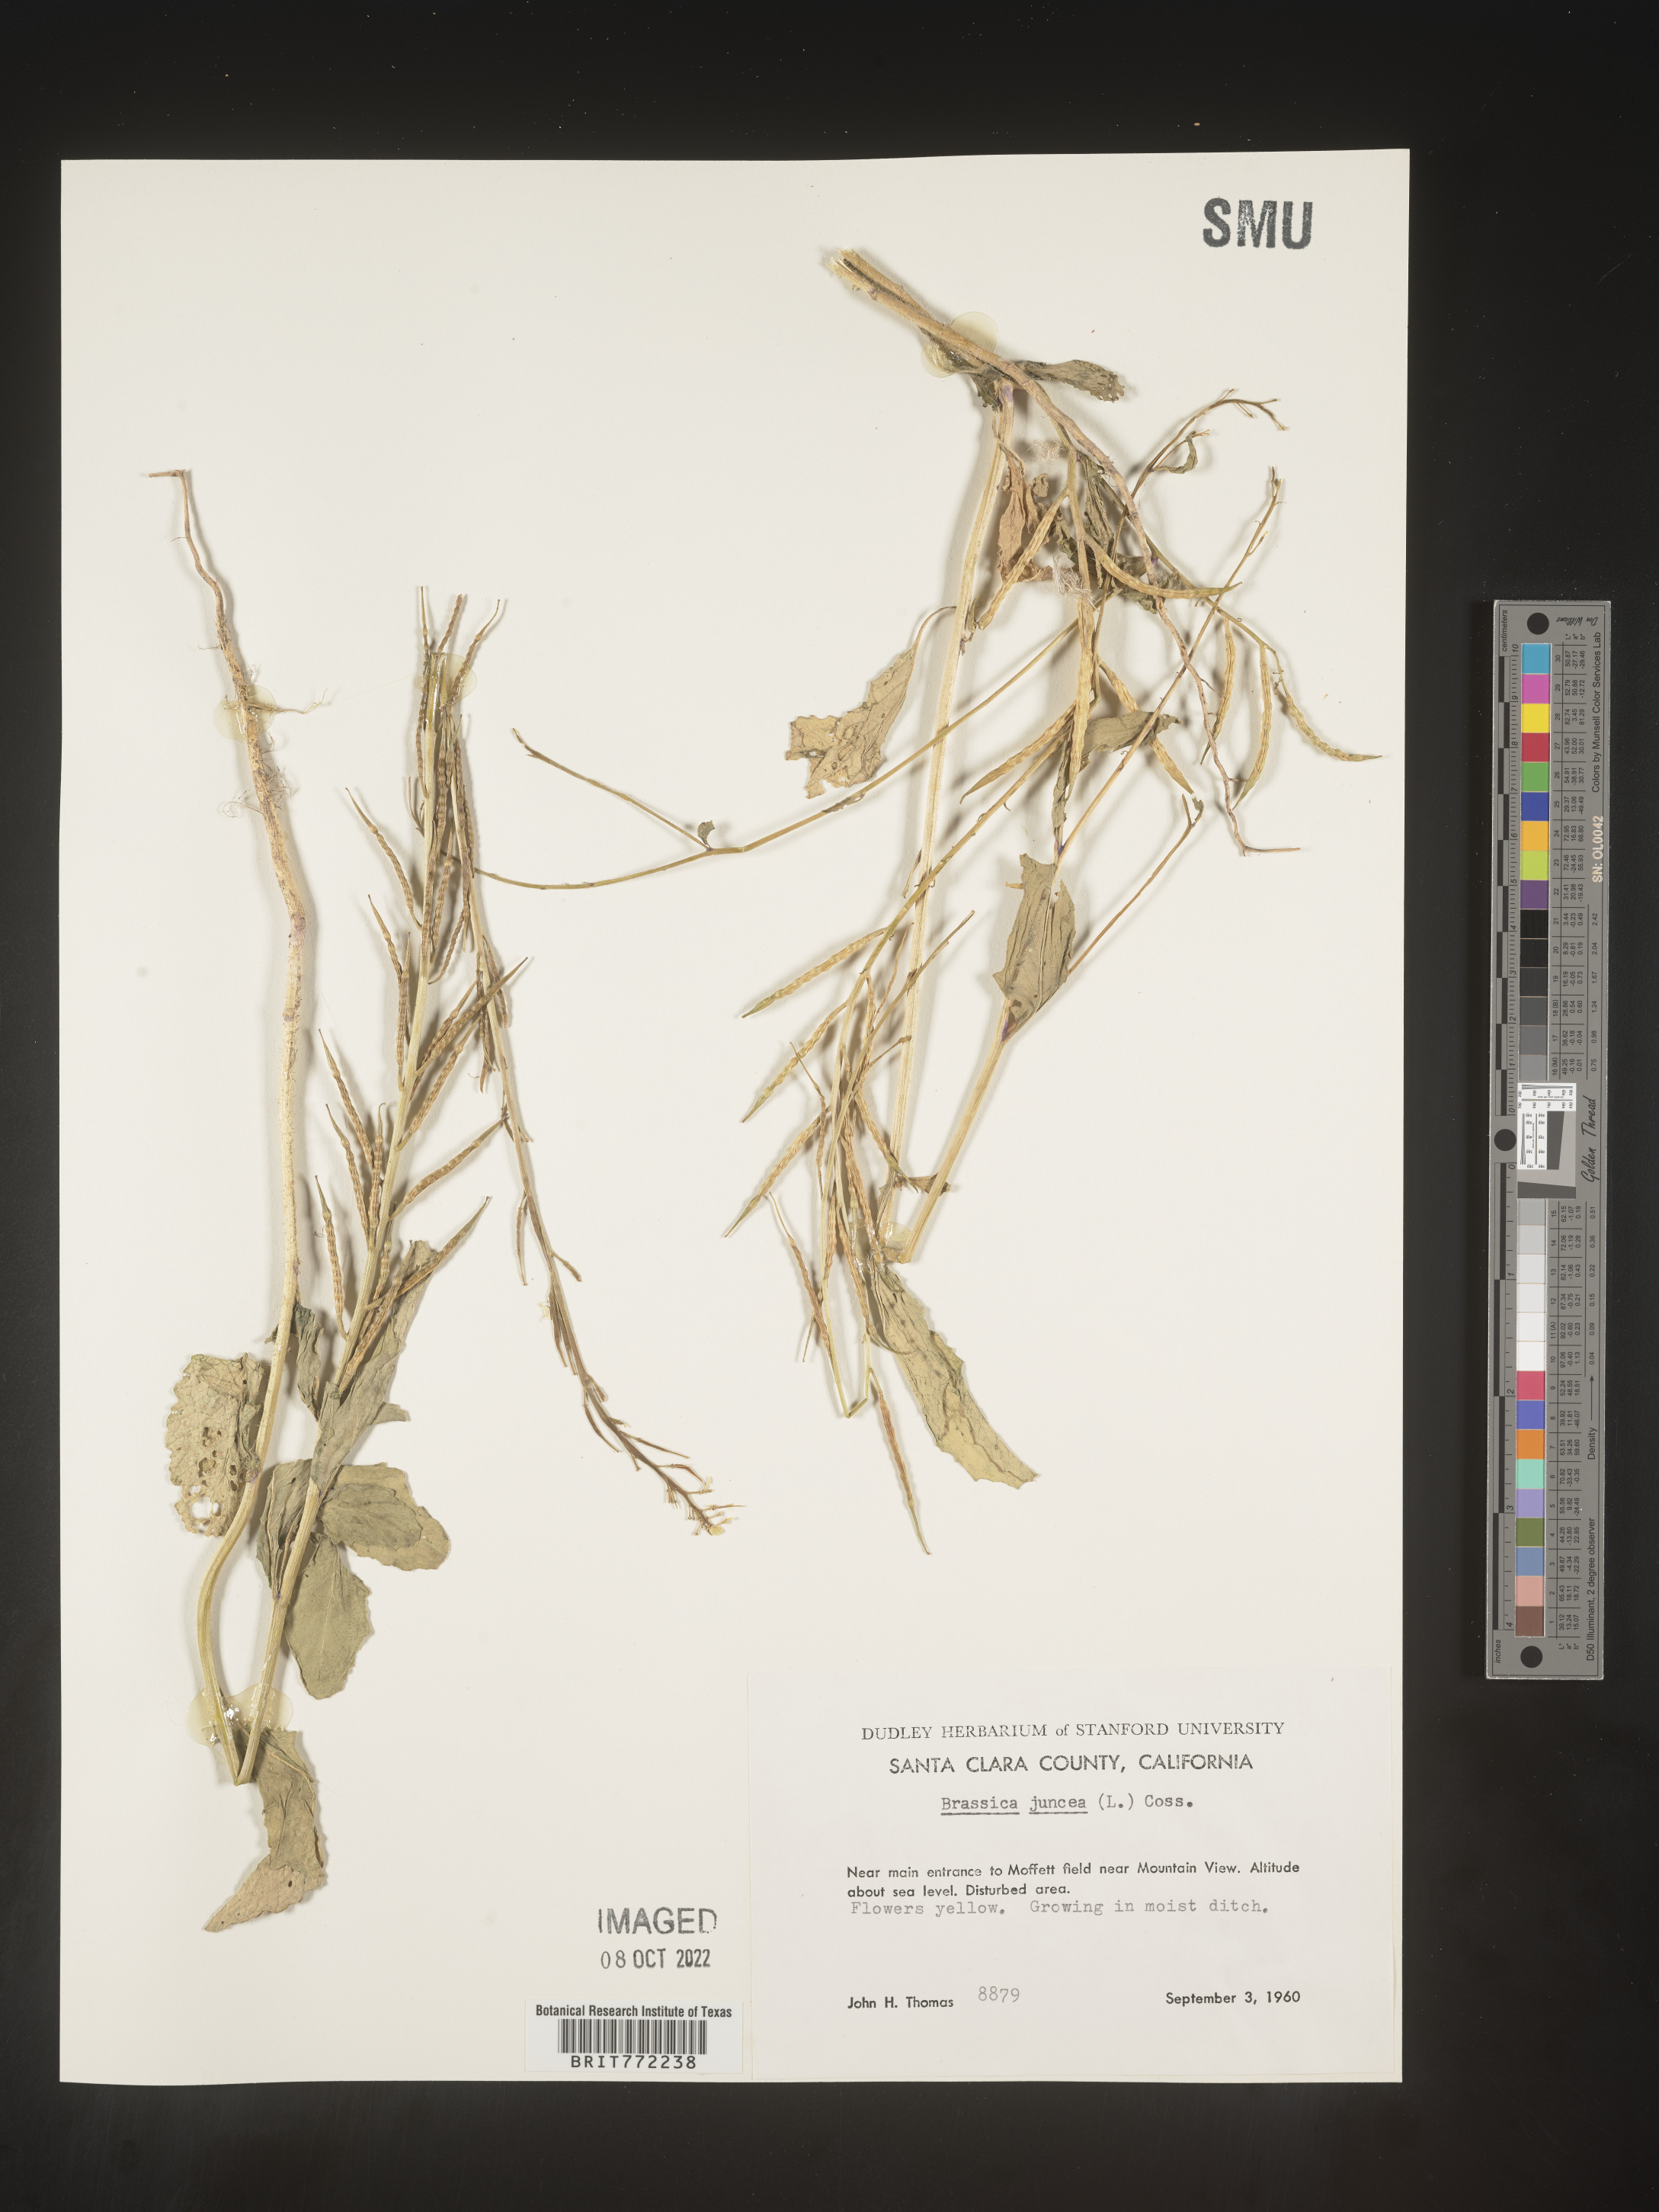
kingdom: Plantae
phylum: Tracheophyta
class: Magnoliopsida
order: Brassicales
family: Brassicaceae
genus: Brassica
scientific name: Brassica juncea
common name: Brown mustard
